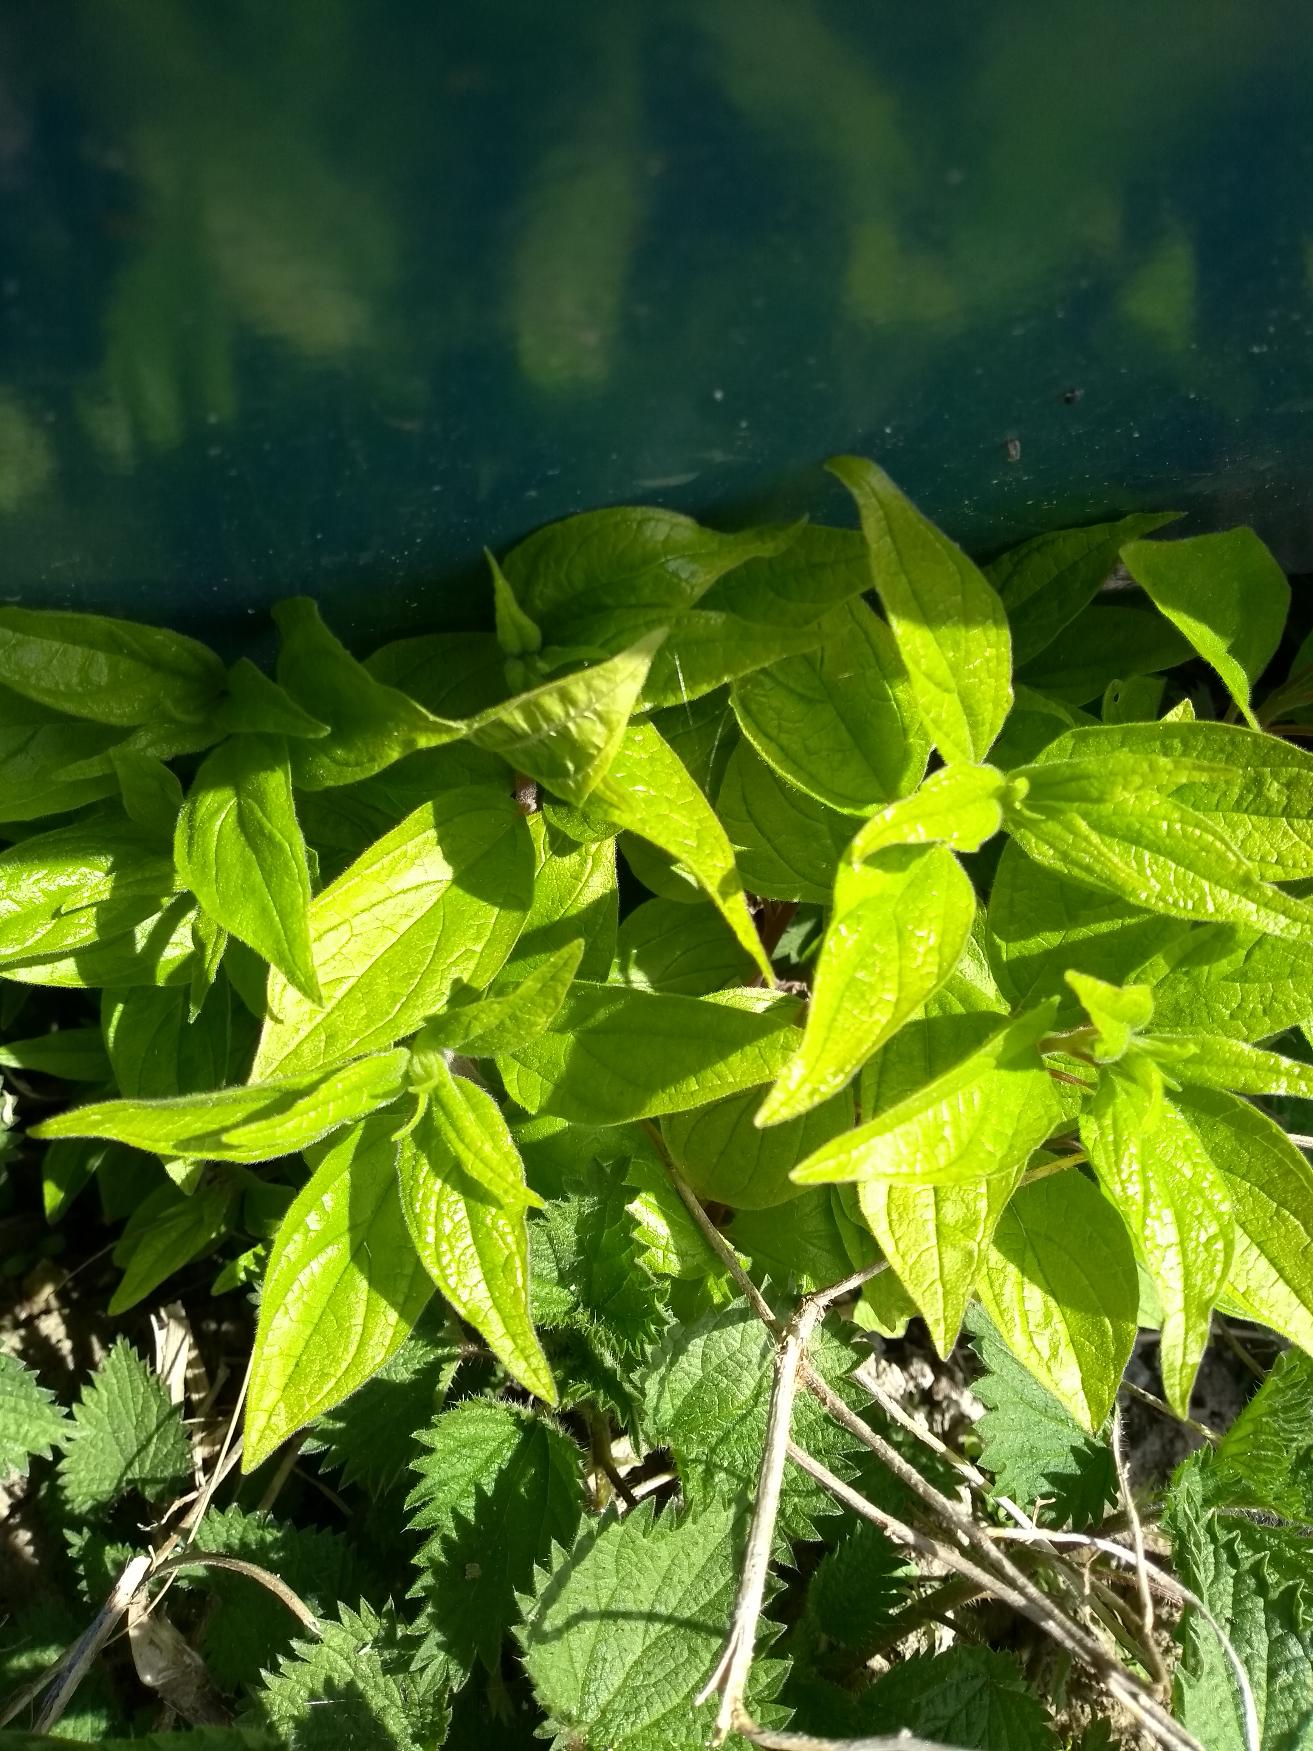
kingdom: Plantae
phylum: Tracheophyta
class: Magnoliopsida
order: Rosales
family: Urticaceae
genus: Parietaria
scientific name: Parietaria officinalis
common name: Almindelig springknap
